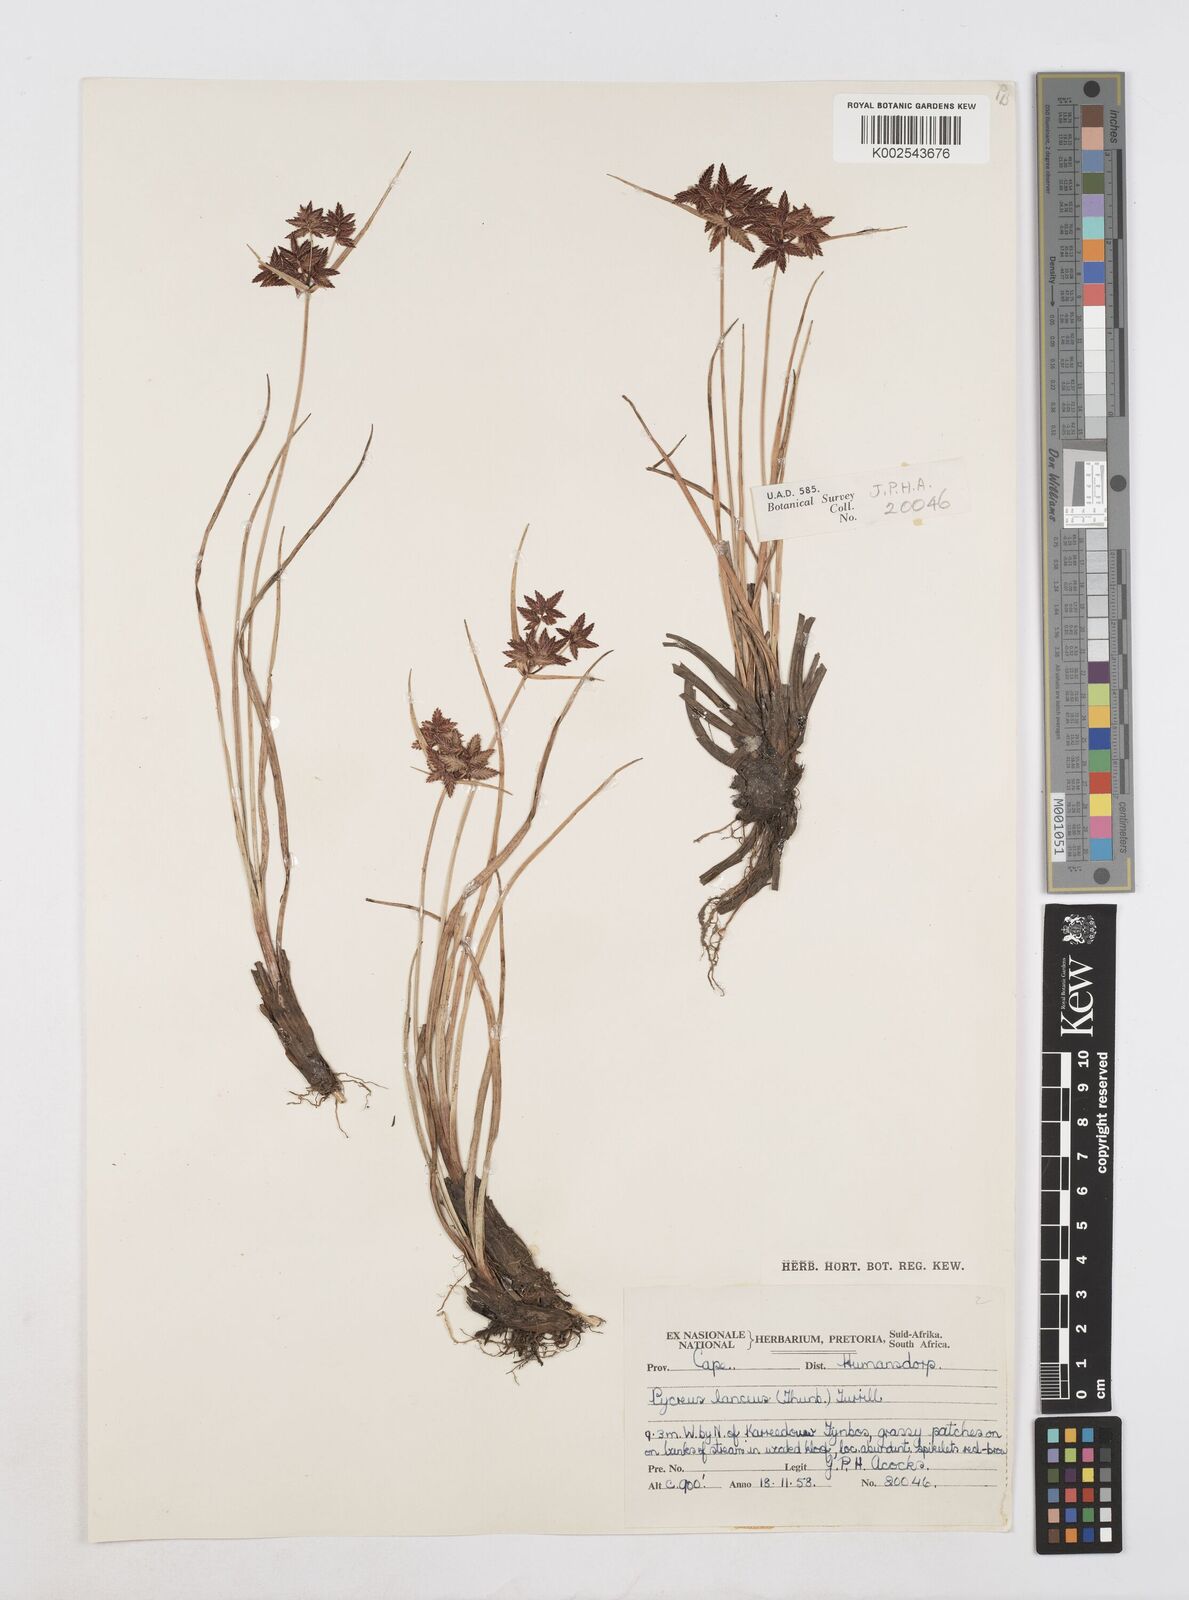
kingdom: Plantae
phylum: Tracheophyta
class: Liliopsida
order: Poales
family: Cyperaceae
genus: Cyperus
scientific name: Cyperus nitidus
